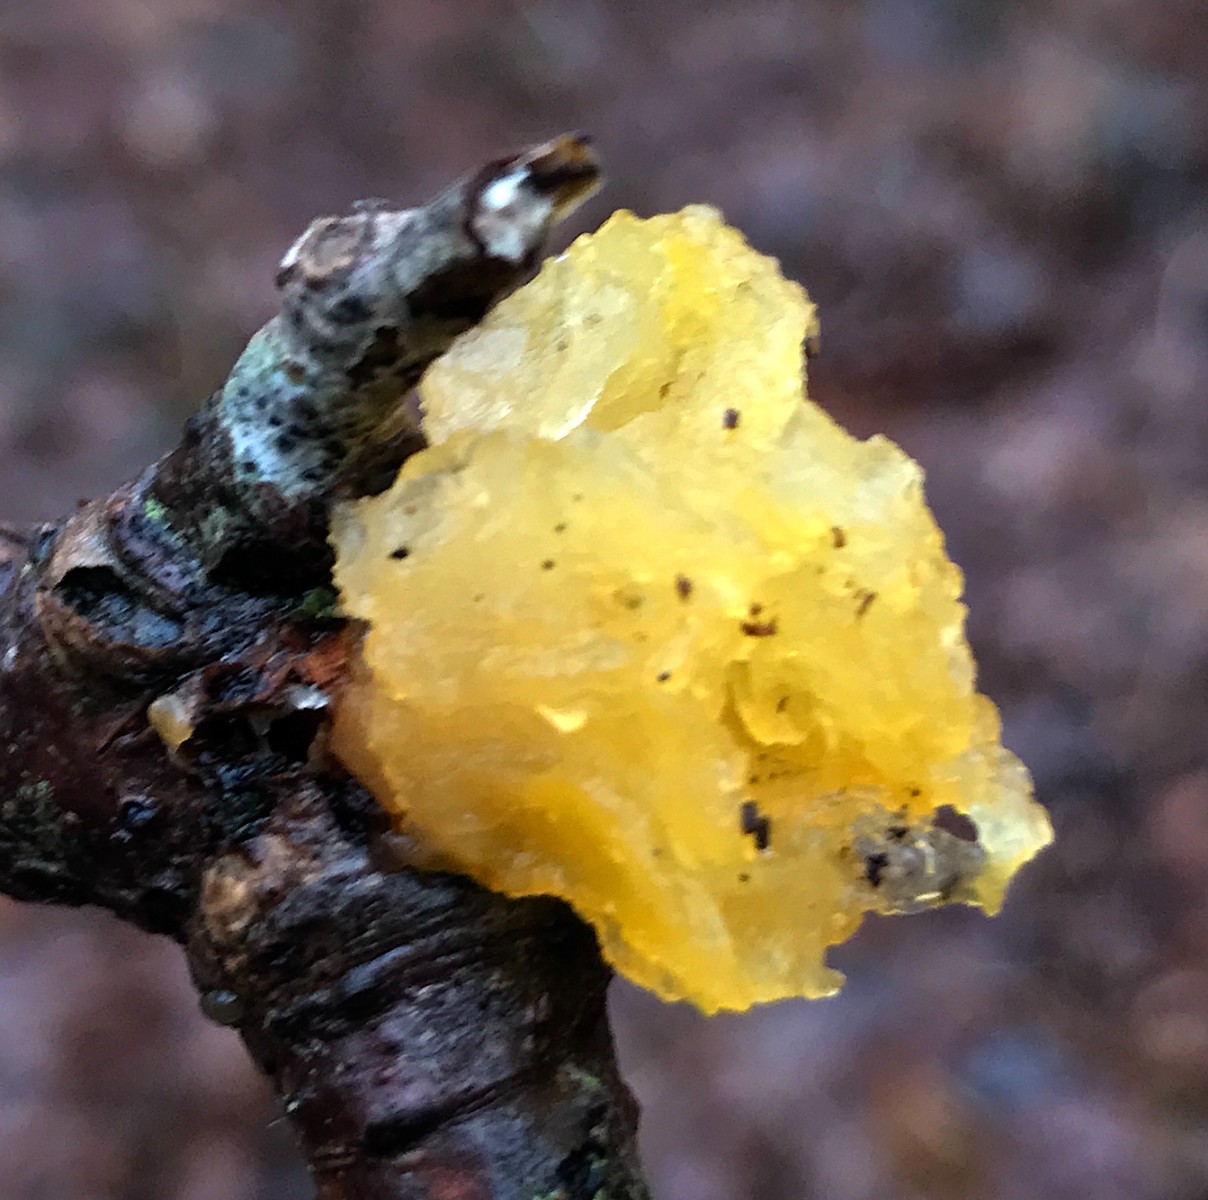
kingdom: Fungi
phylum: Basidiomycota
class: Tremellomycetes
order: Tremellales
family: Tremellaceae
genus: Tremella
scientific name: Tremella mesenterica
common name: gul bævresvamp
